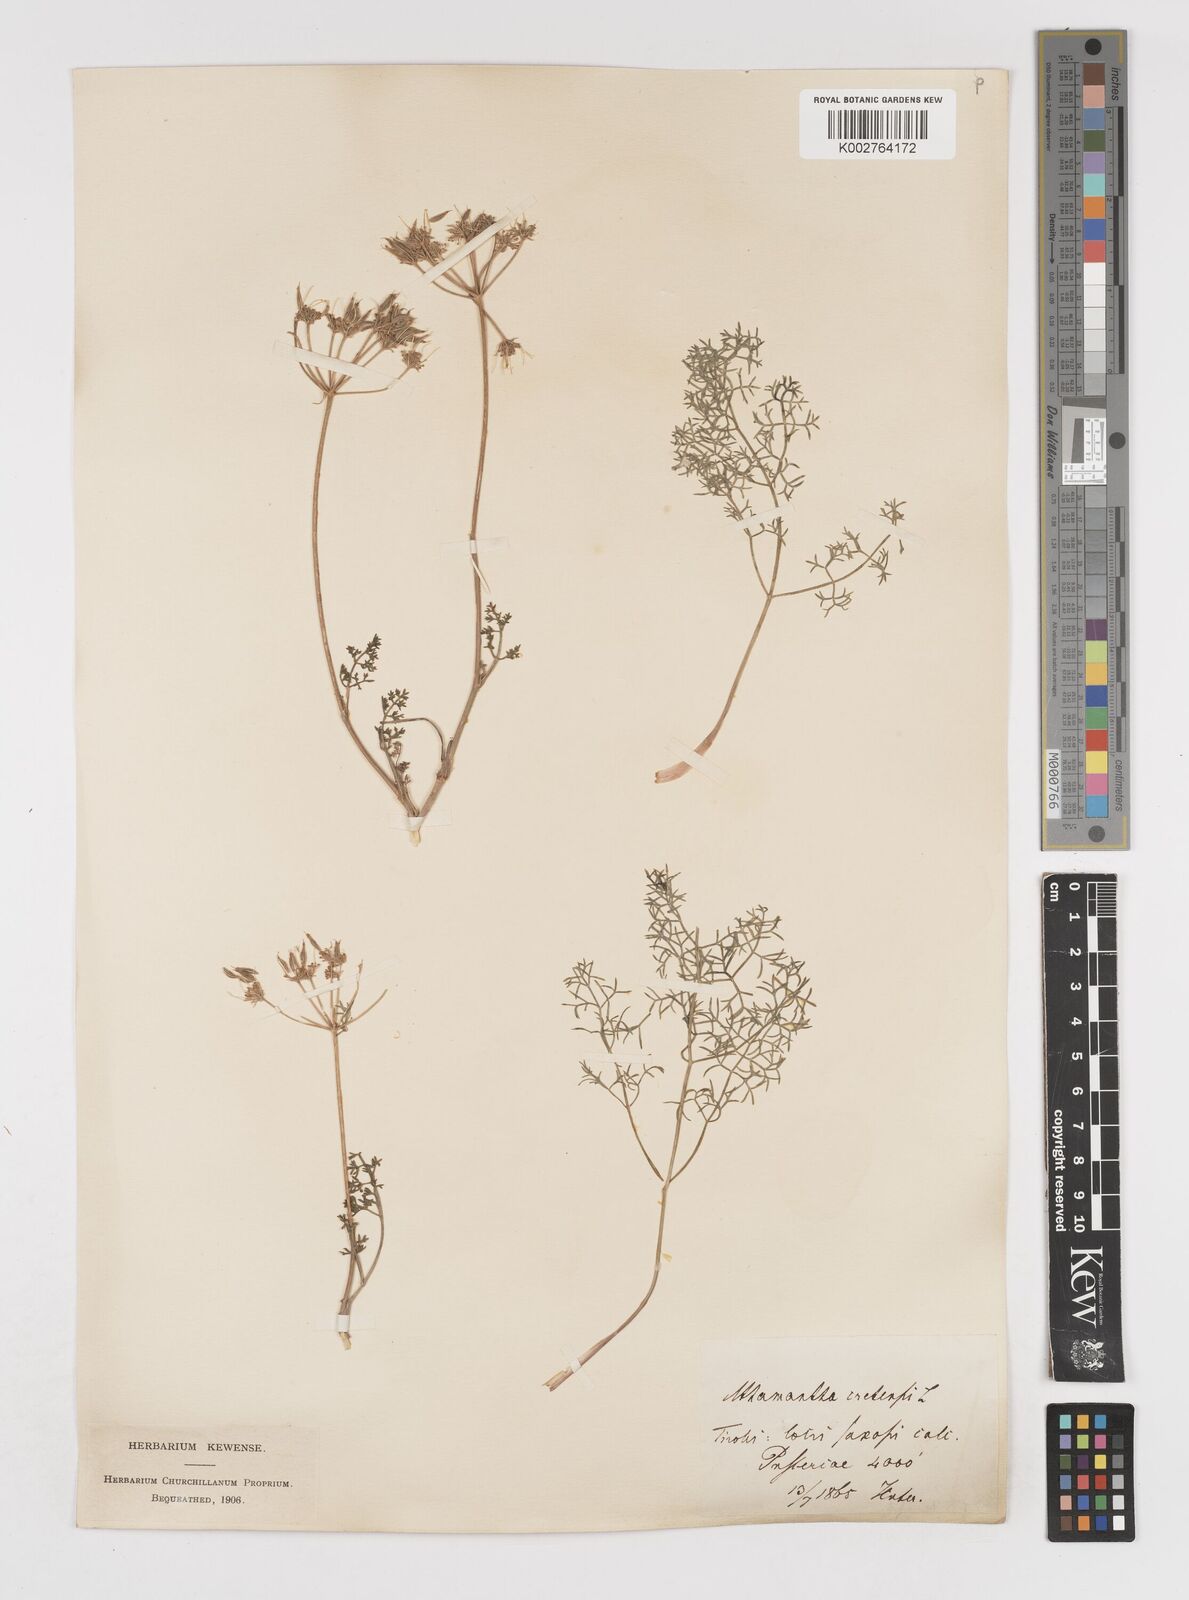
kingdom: Plantae
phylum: Tracheophyta
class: Magnoliopsida
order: Apiales
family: Apiaceae
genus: Athamanta
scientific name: Athamanta cretensis
